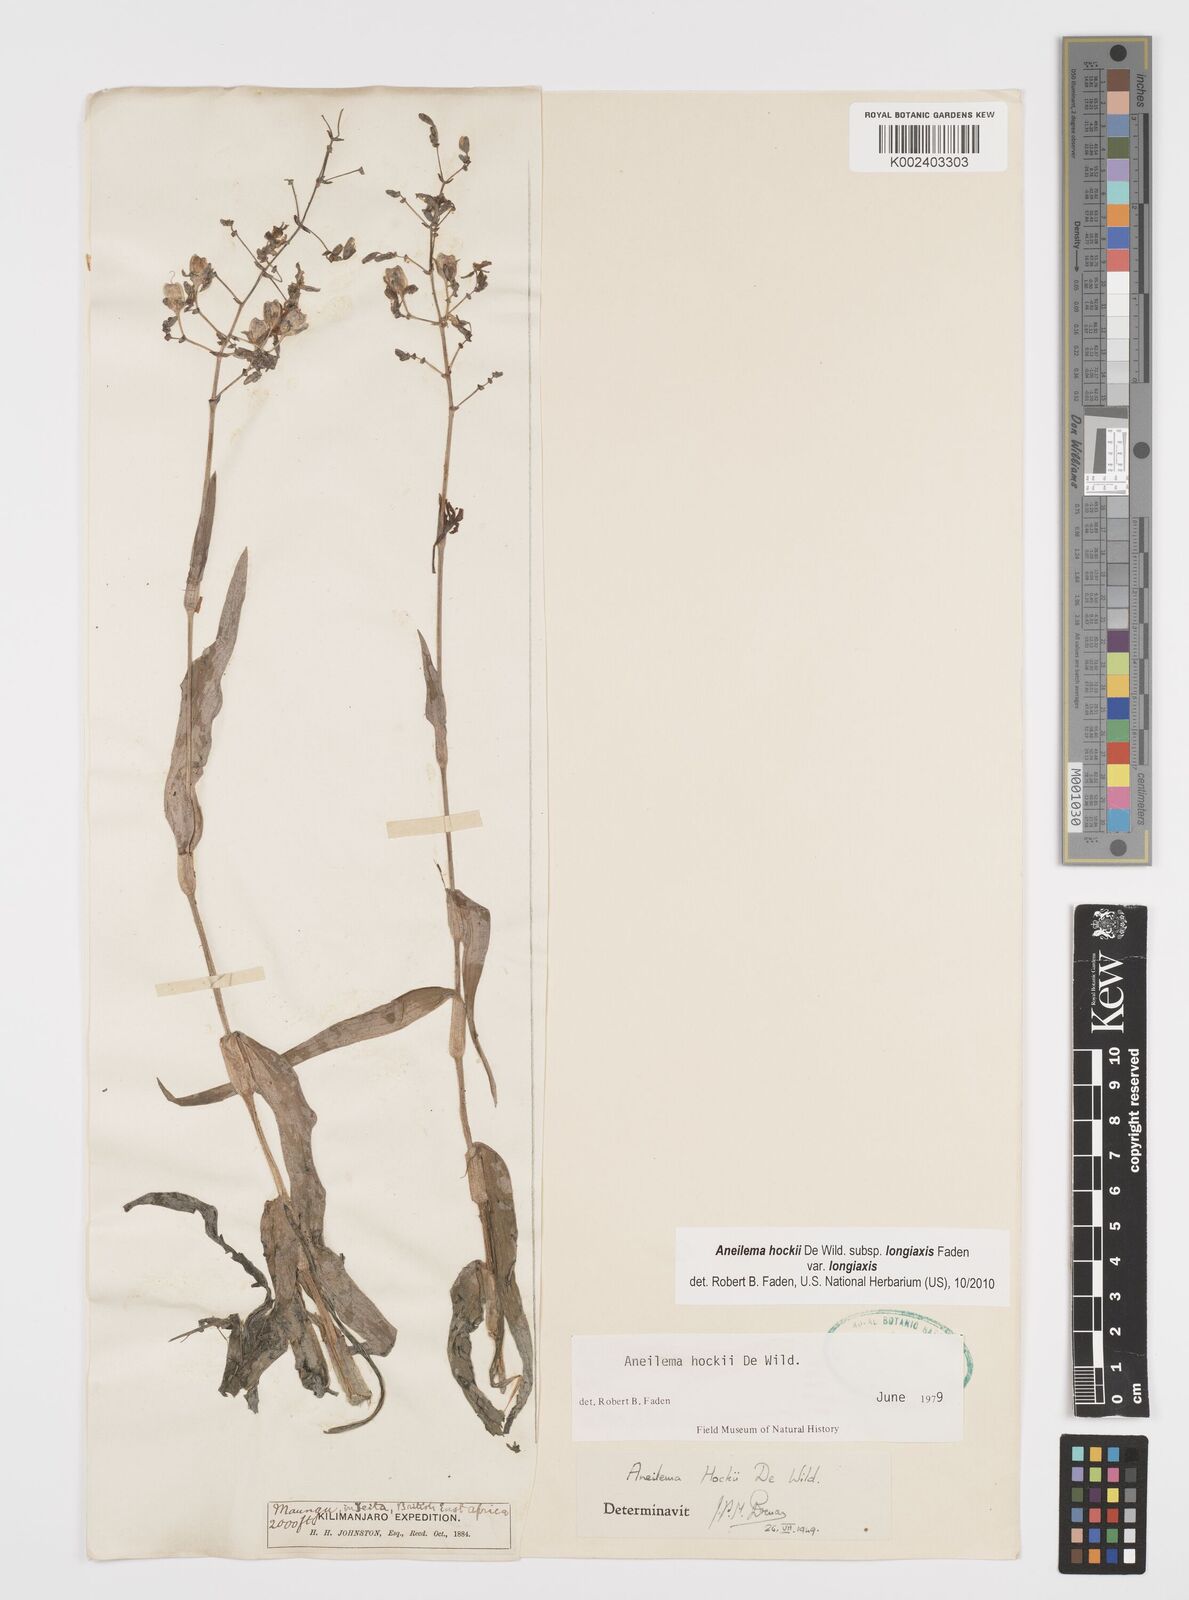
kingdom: Plantae
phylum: Tracheophyta
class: Liliopsida
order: Commelinales
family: Commelinaceae
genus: Aneilema
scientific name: Aneilema hockii
